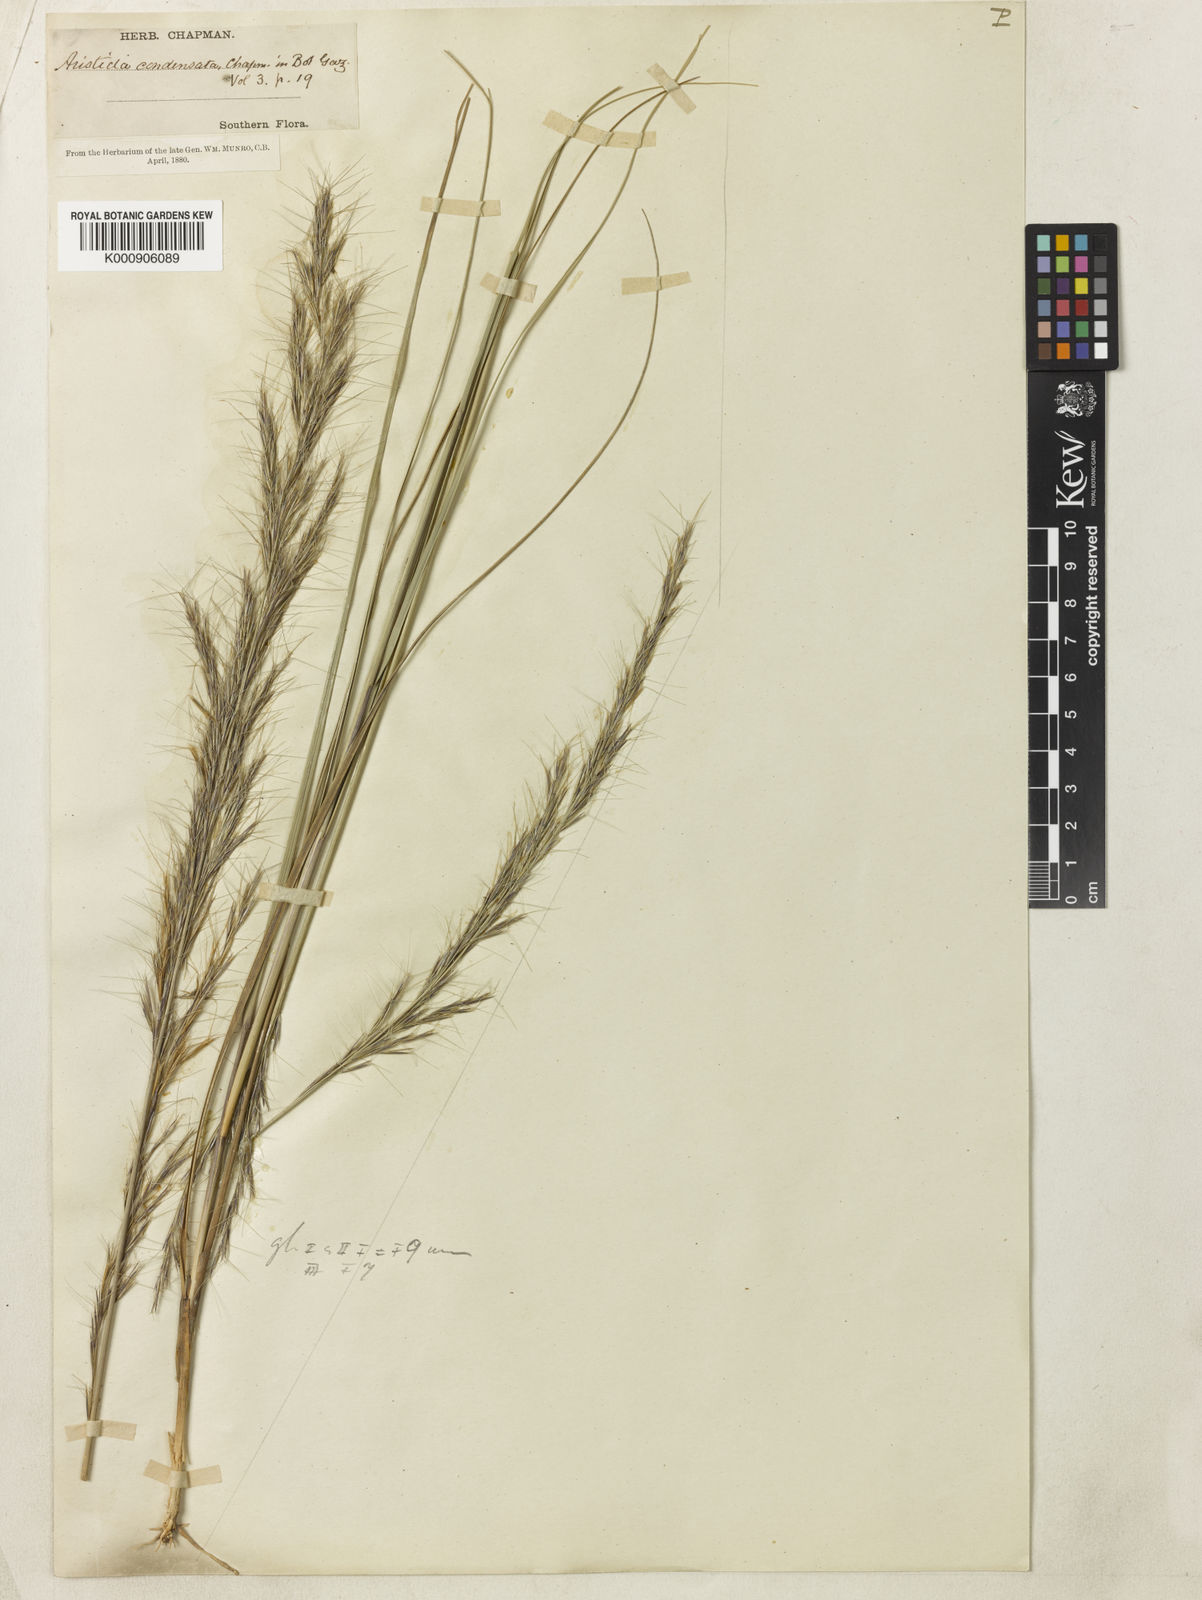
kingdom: Plantae
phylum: Tracheophyta
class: Liliopsida
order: Poales
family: Poaceae
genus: Aristida
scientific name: Aristida condensata
